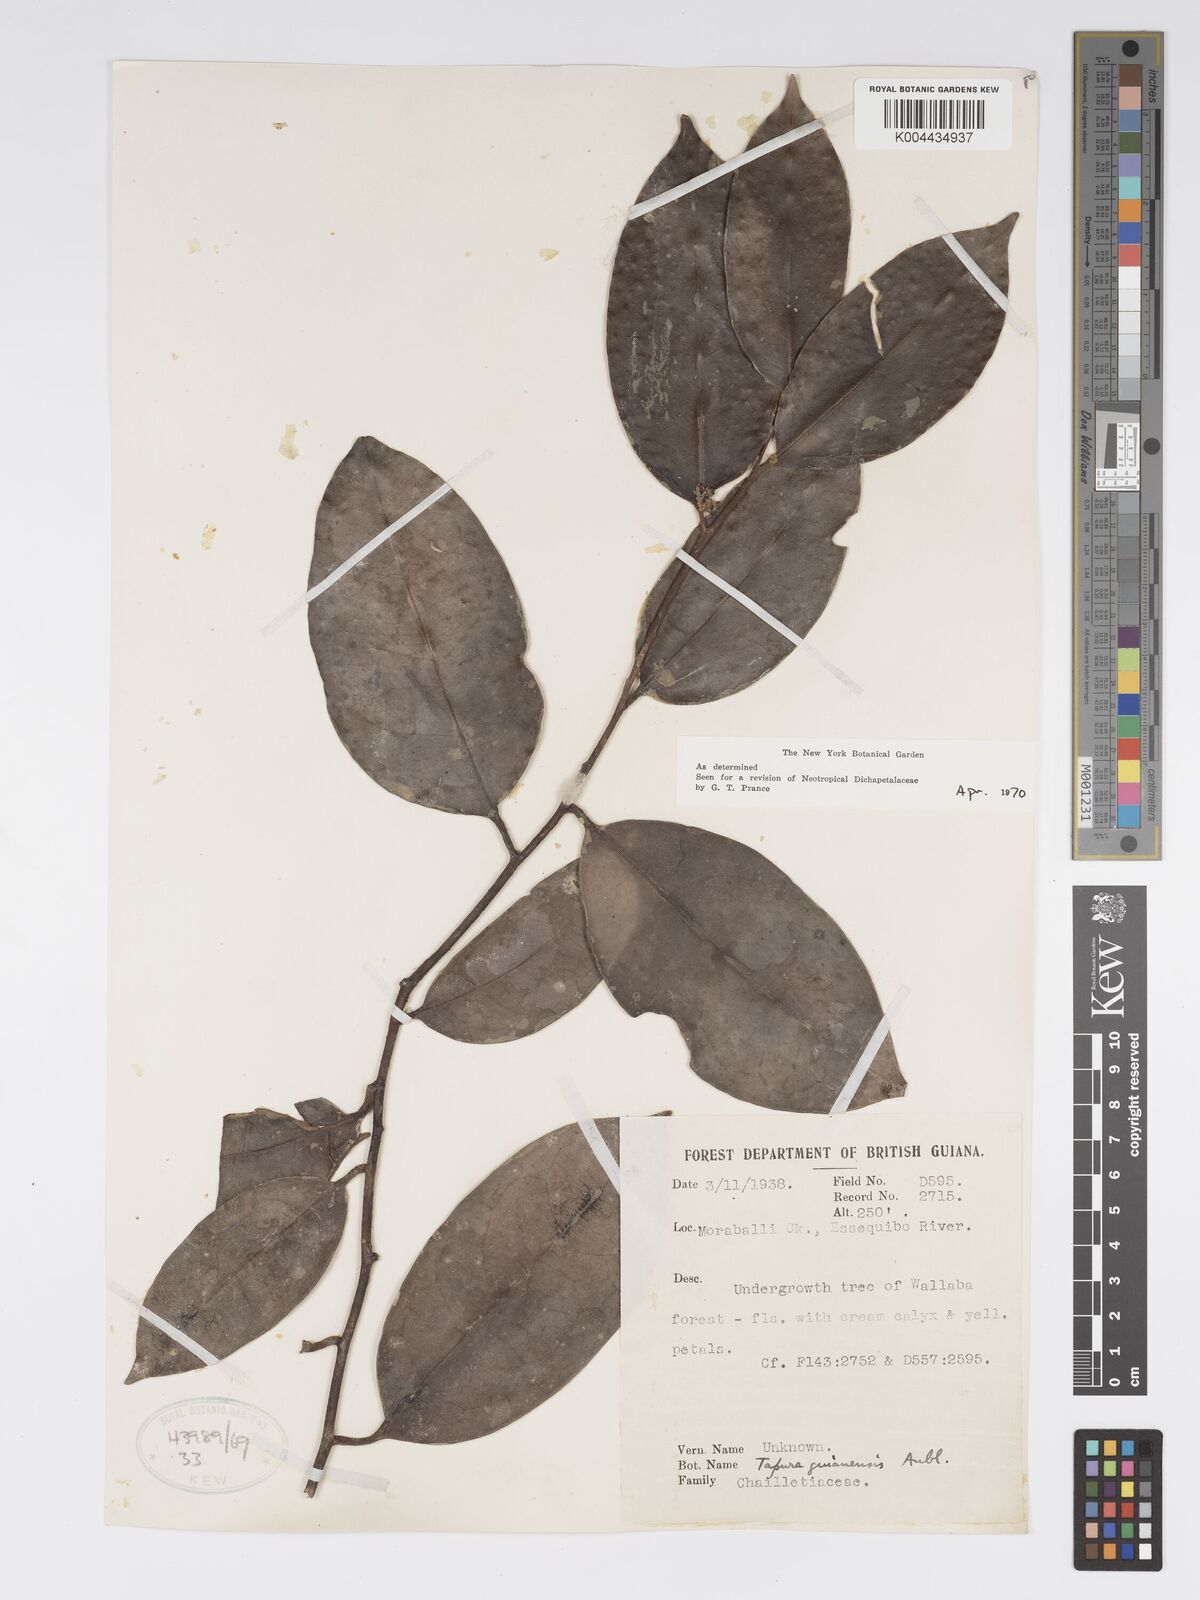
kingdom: Plantae
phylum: Tracheophyta
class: Magnoliopsida
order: Malpighiales
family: Dichapetalaceae
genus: Tapura
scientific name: Tapura guianensis
